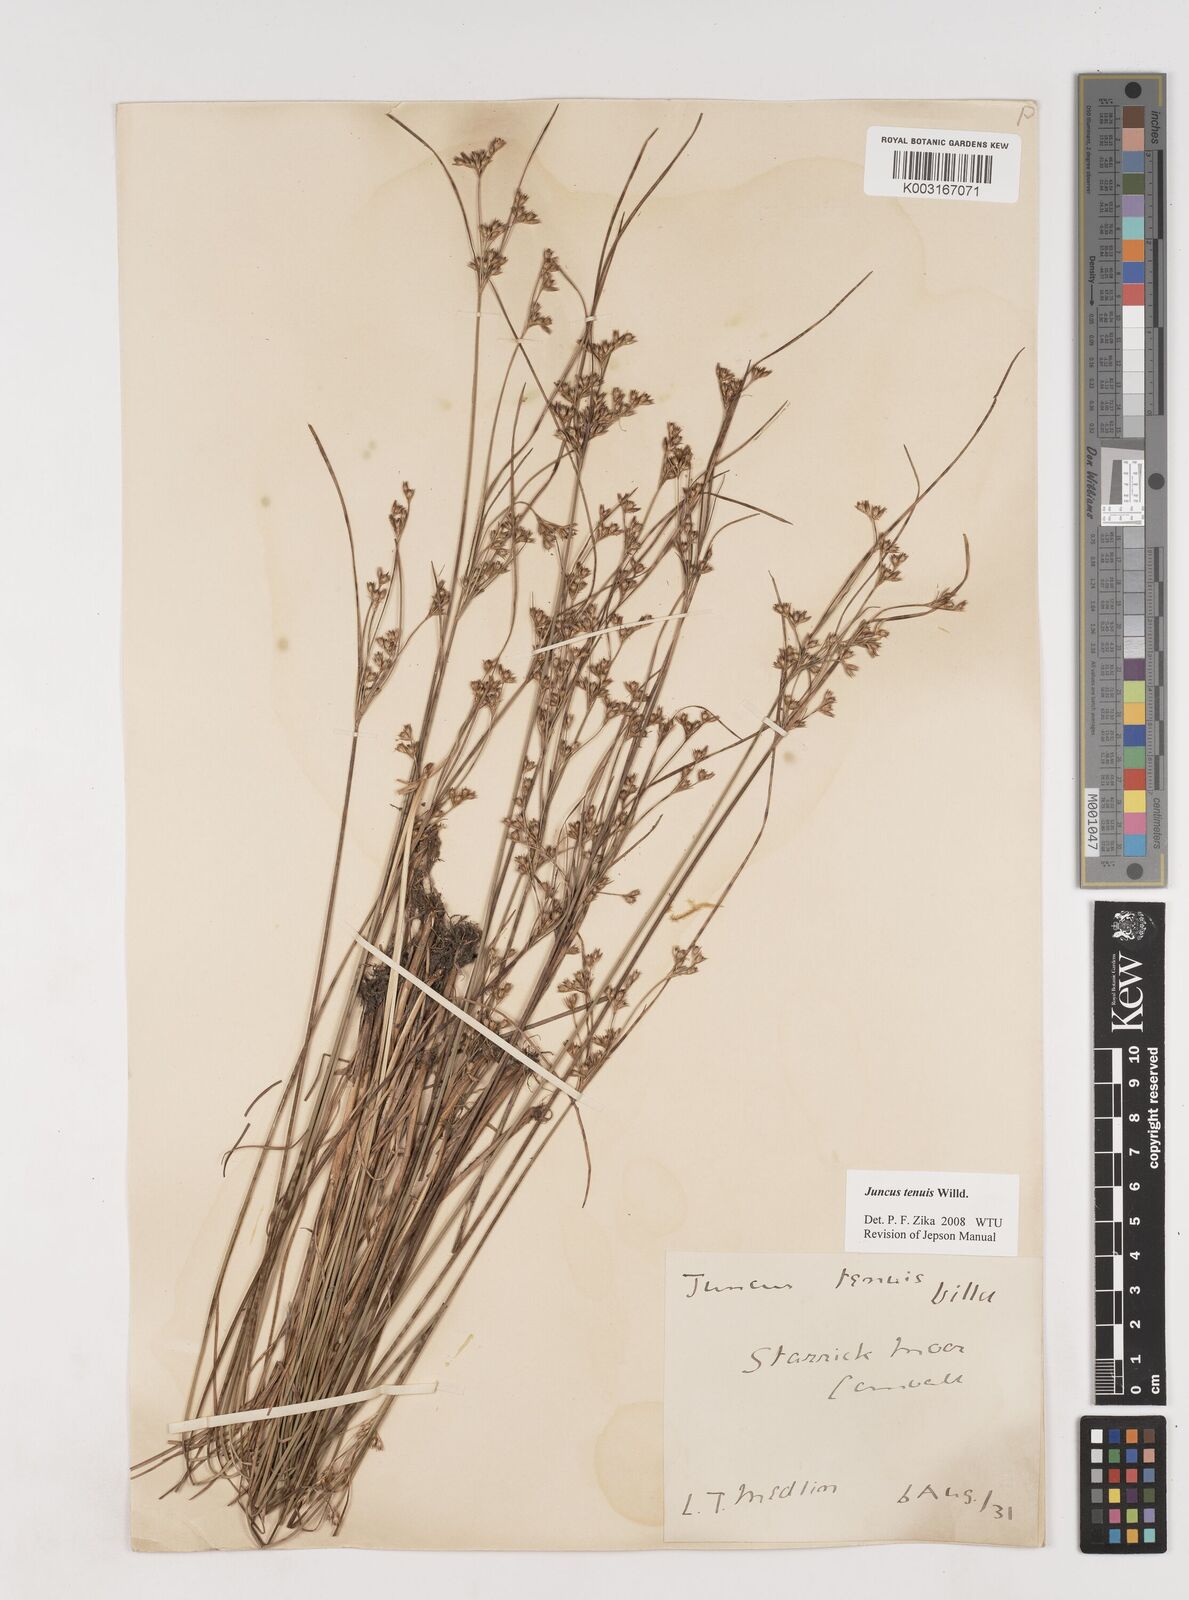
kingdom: Plantae
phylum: Tracheophyta
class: Liliopsida
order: Poales
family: Juncaceae
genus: Juncus
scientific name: Juncus tenuis
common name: Slender rush
